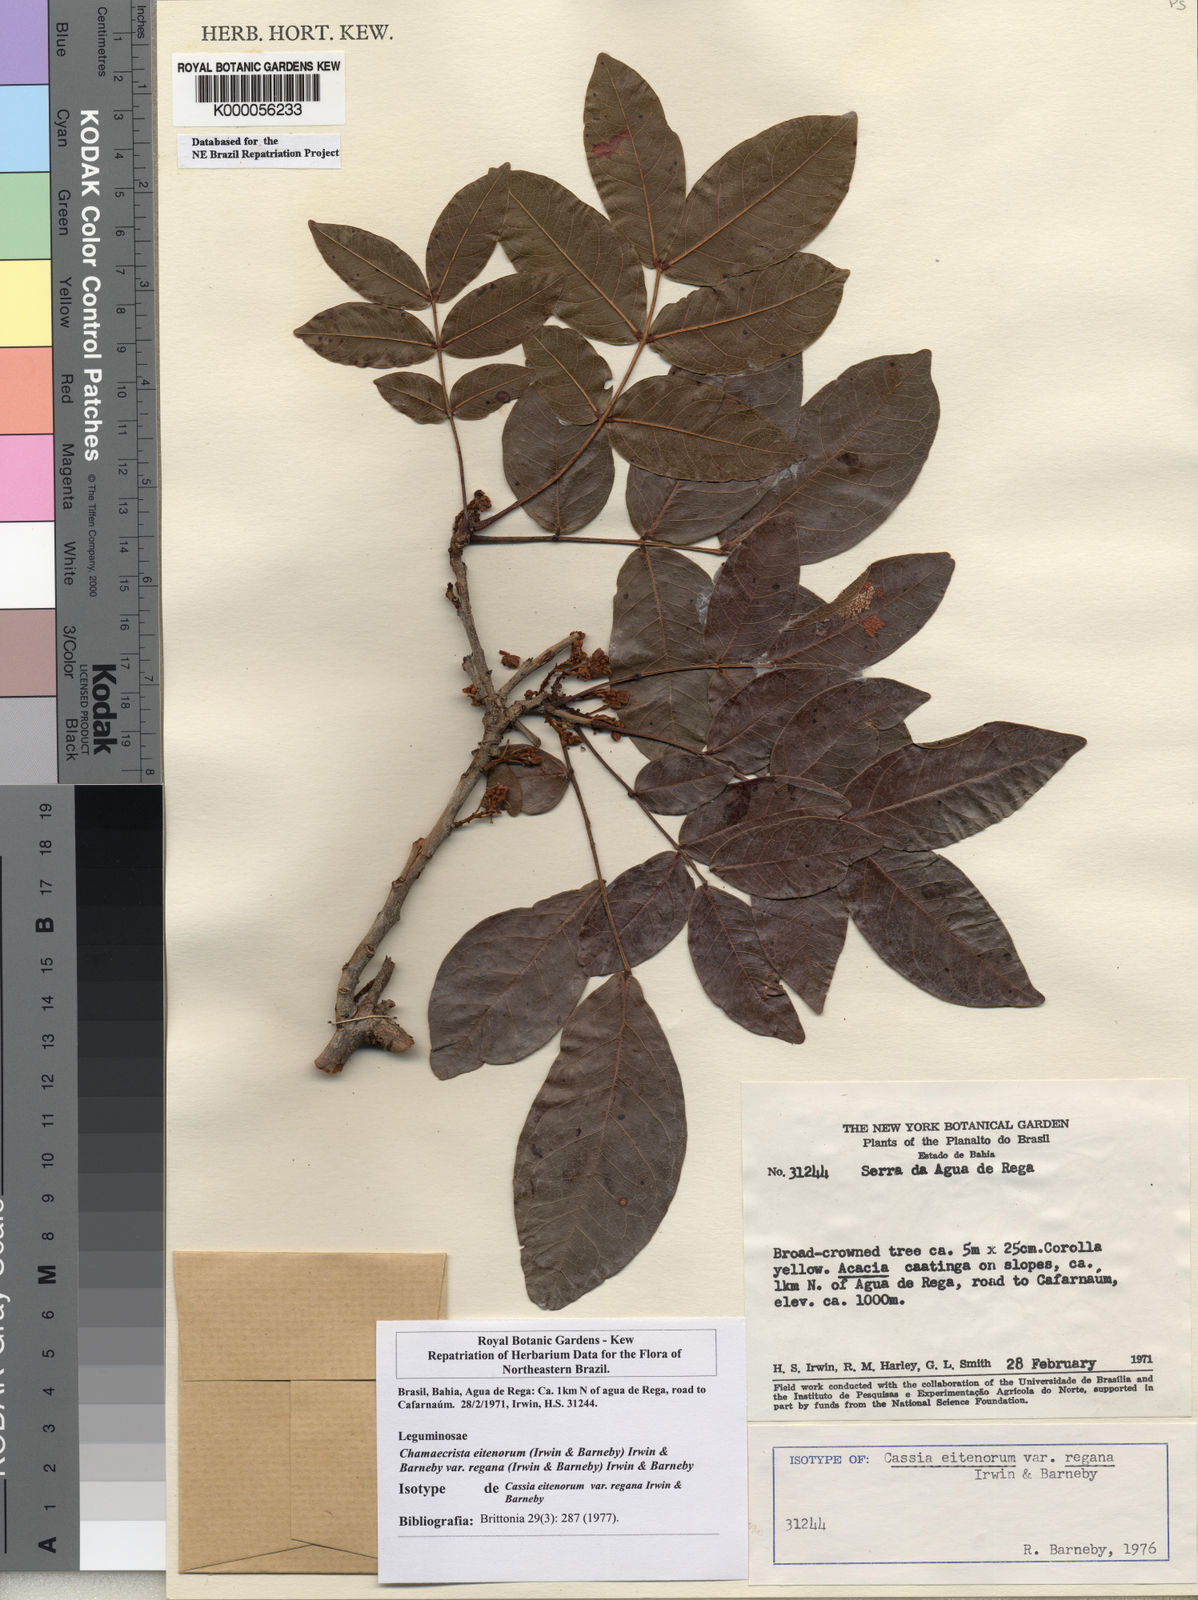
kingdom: Plantae
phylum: Tracheophyta
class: Magnoliopsida
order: Fabales
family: Fabaceae
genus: Chamaecrista
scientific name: Chamaecrista eitenorum
